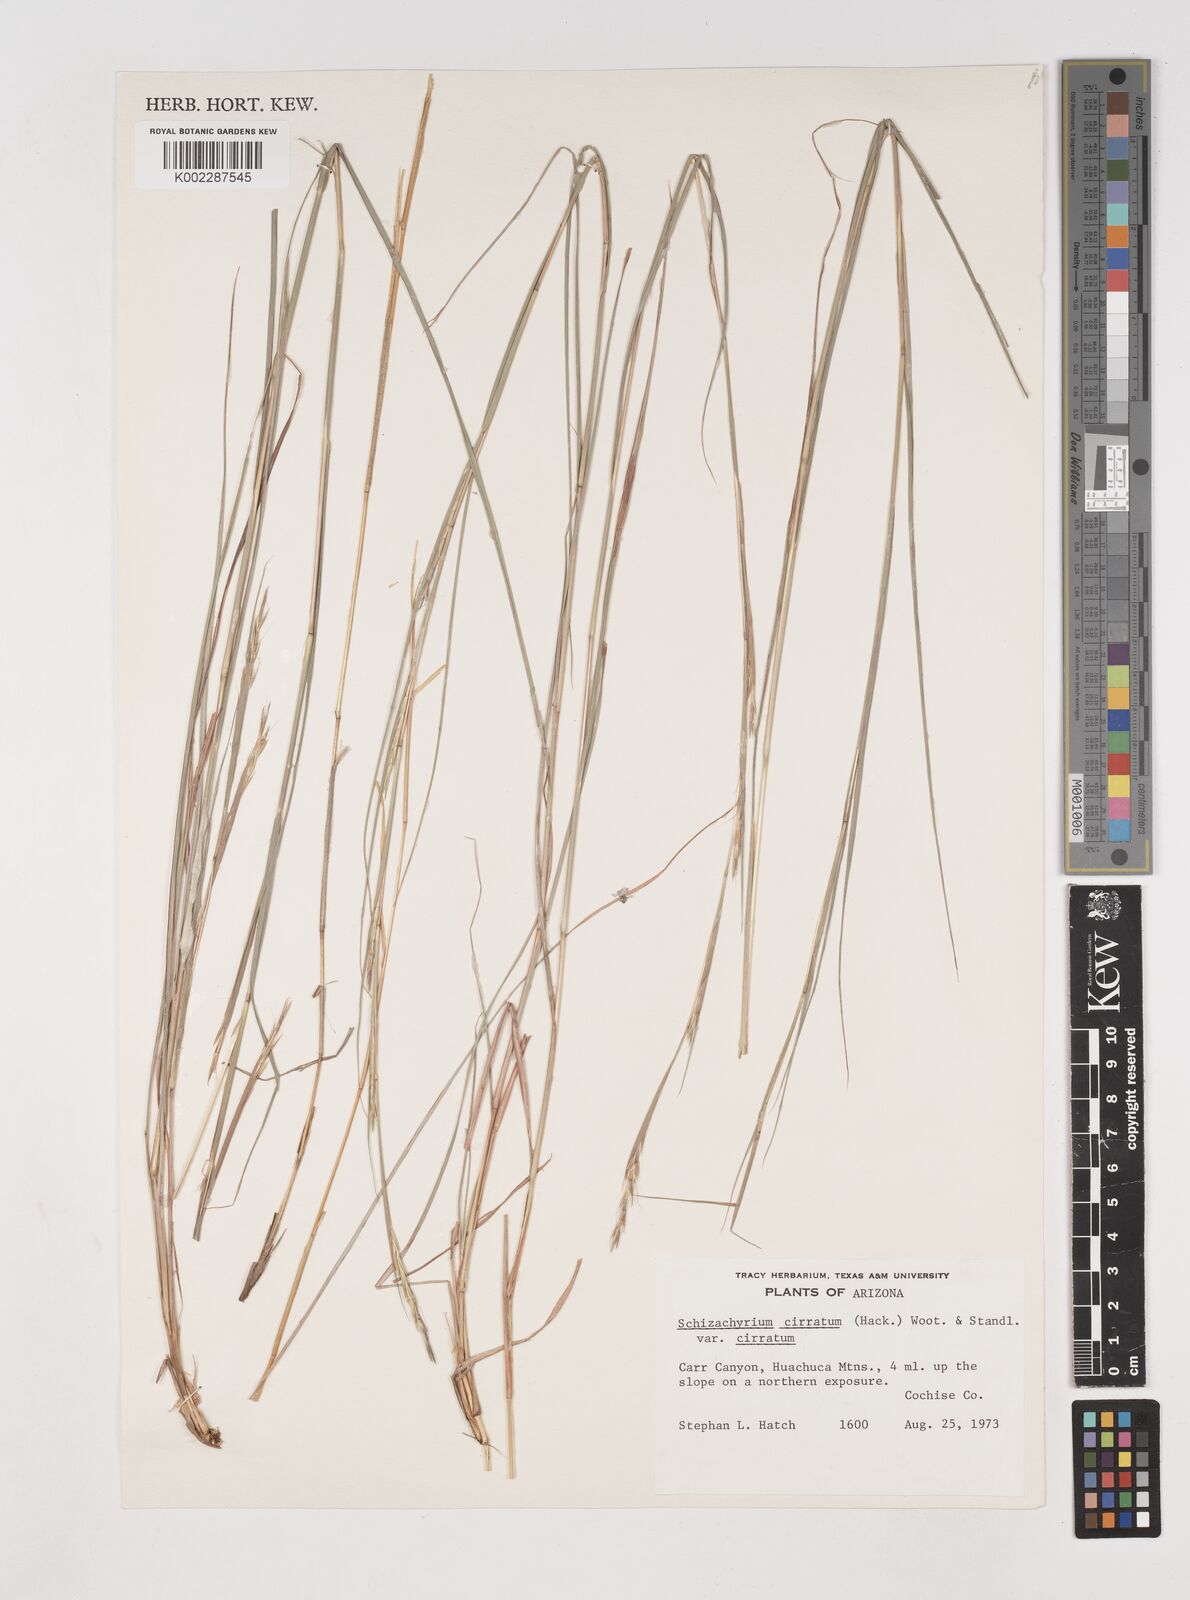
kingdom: Plantae
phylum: Tracheophyta
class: Liliopsida
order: Poales
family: Poaceae
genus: Andropogon
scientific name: Andropogon cirratus
